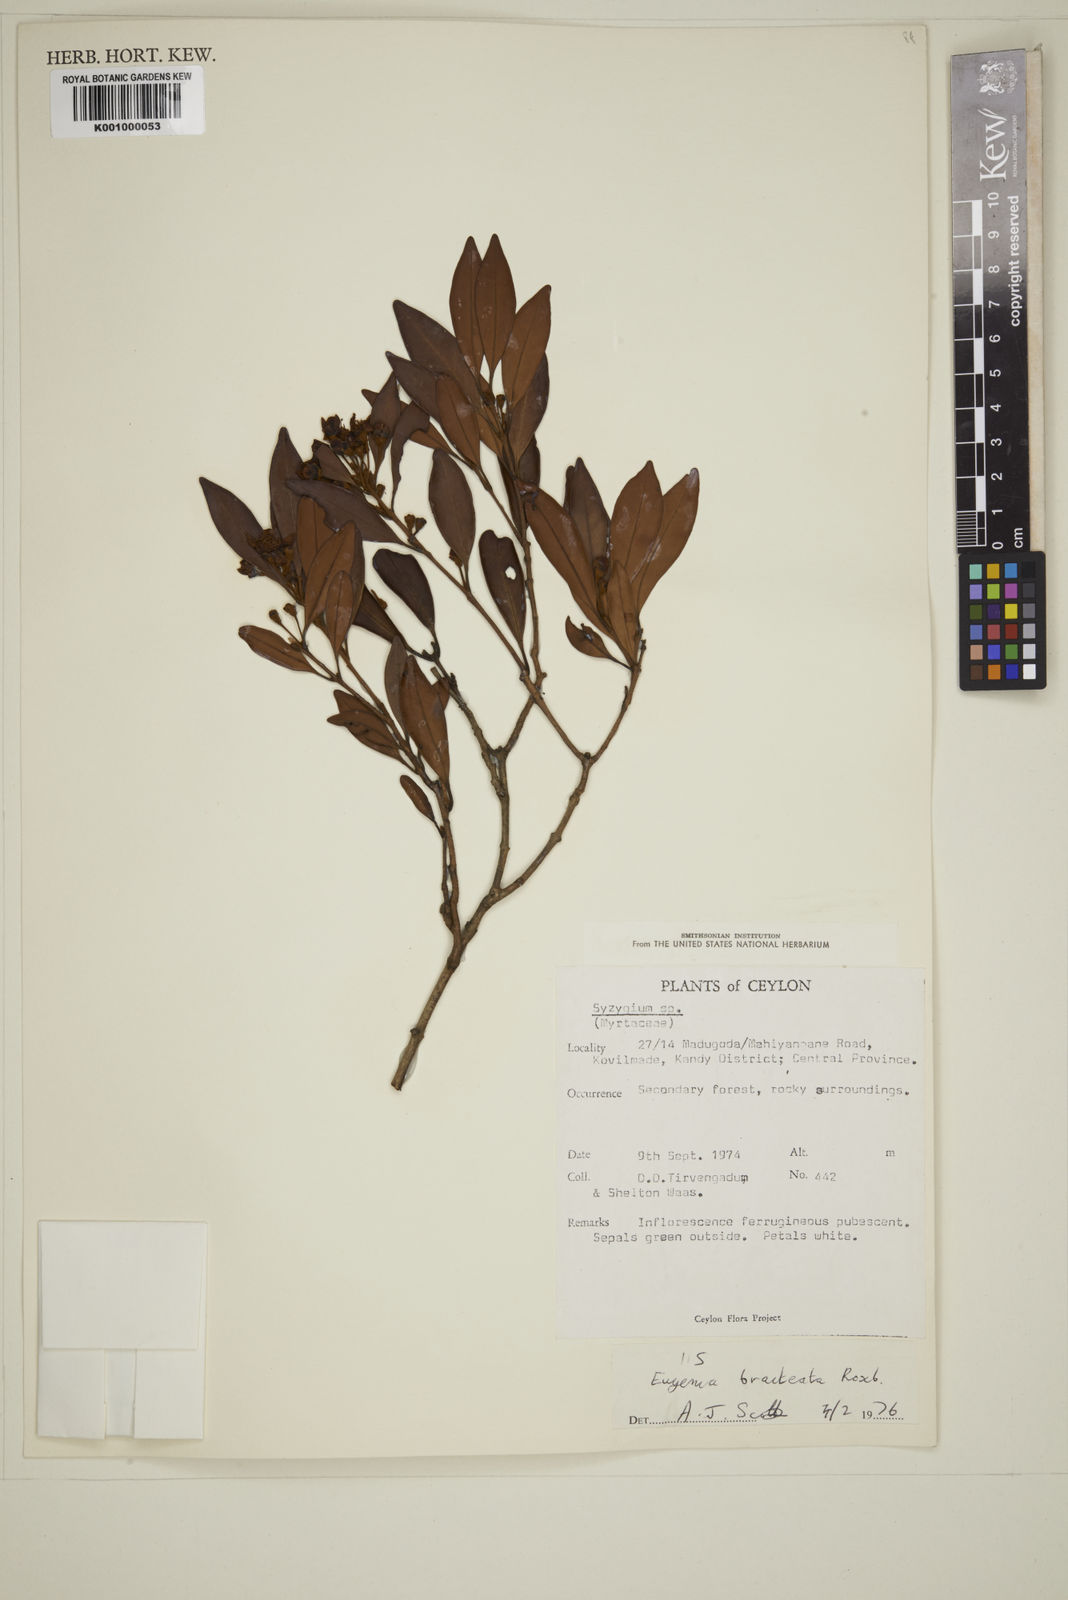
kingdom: Plantae
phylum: Tracheophyta
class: Magnoliopsida
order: Myrtales
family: Myrtaceae
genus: Myrcia
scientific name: Myrcia bracteata
